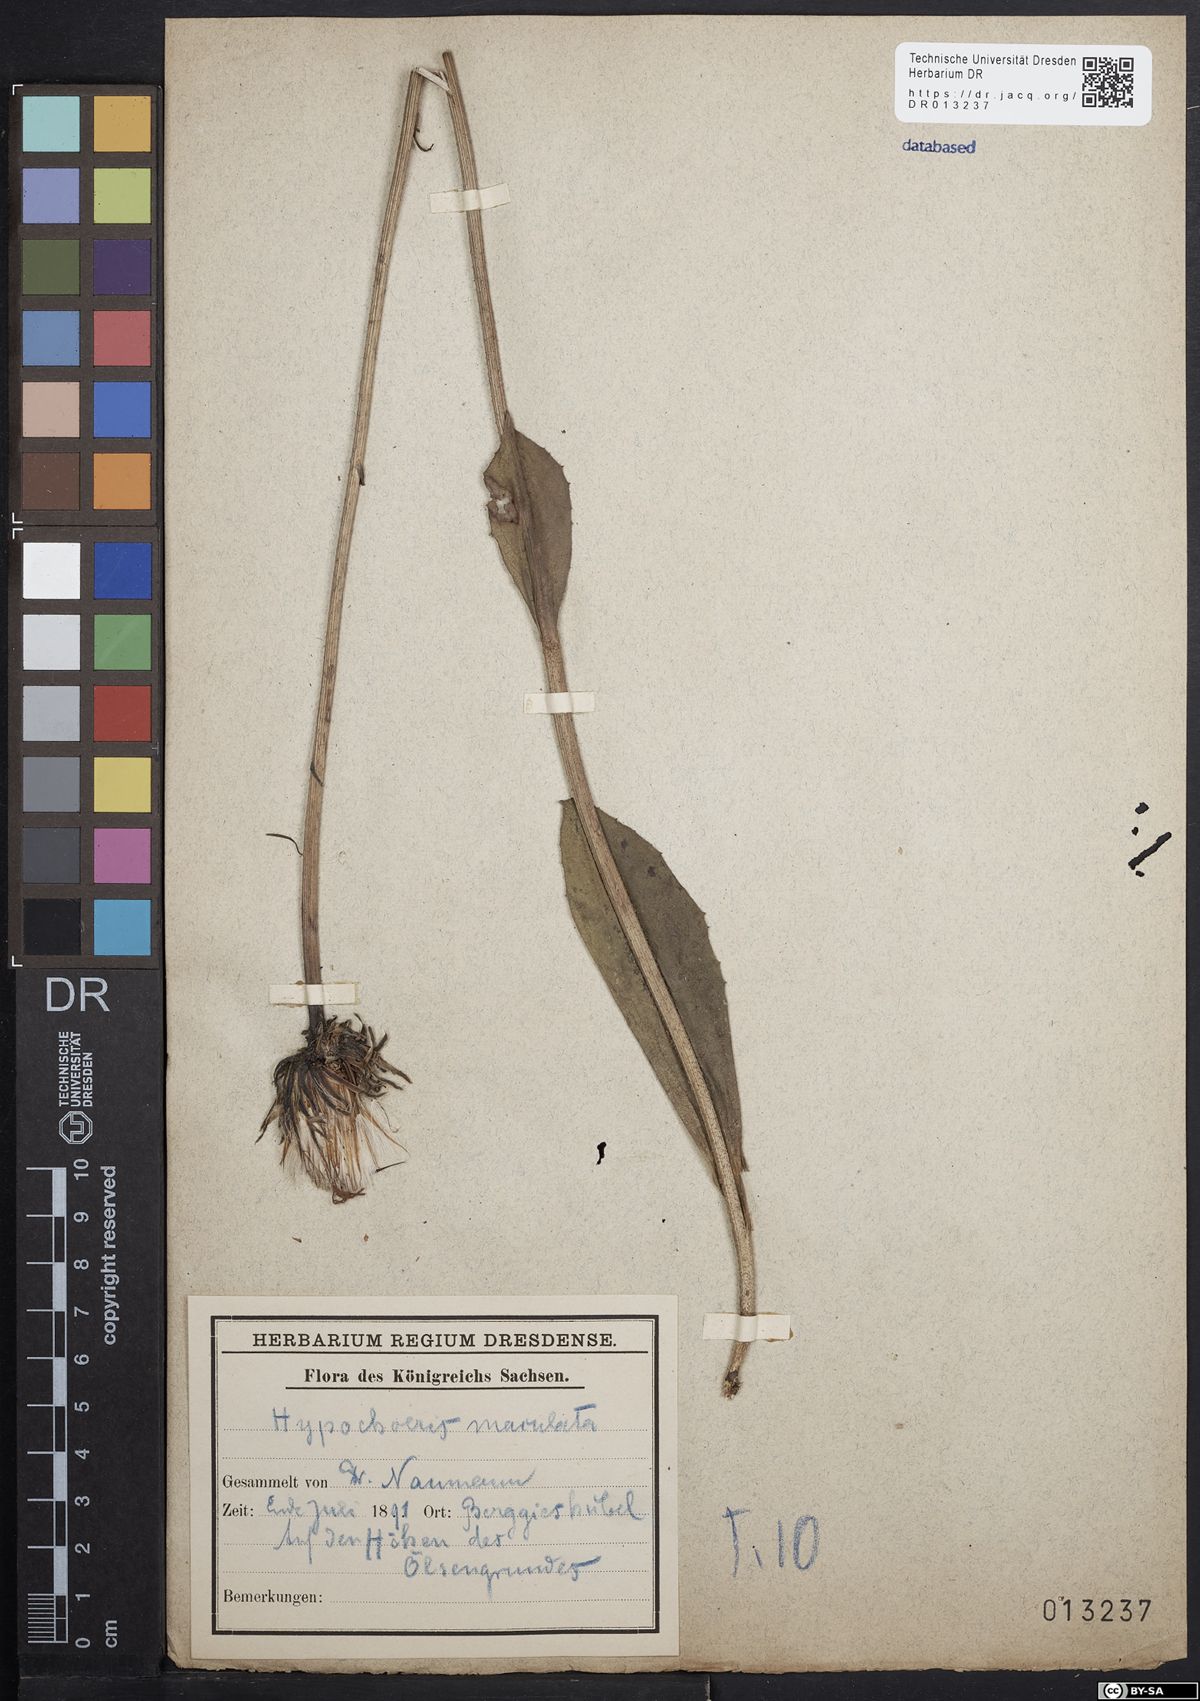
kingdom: Plantae
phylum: Tracheophyta
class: Magnoliopsida
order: Asterales
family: Asteraceae
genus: Trommsdorffia
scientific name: Trommsdorffia maculata
